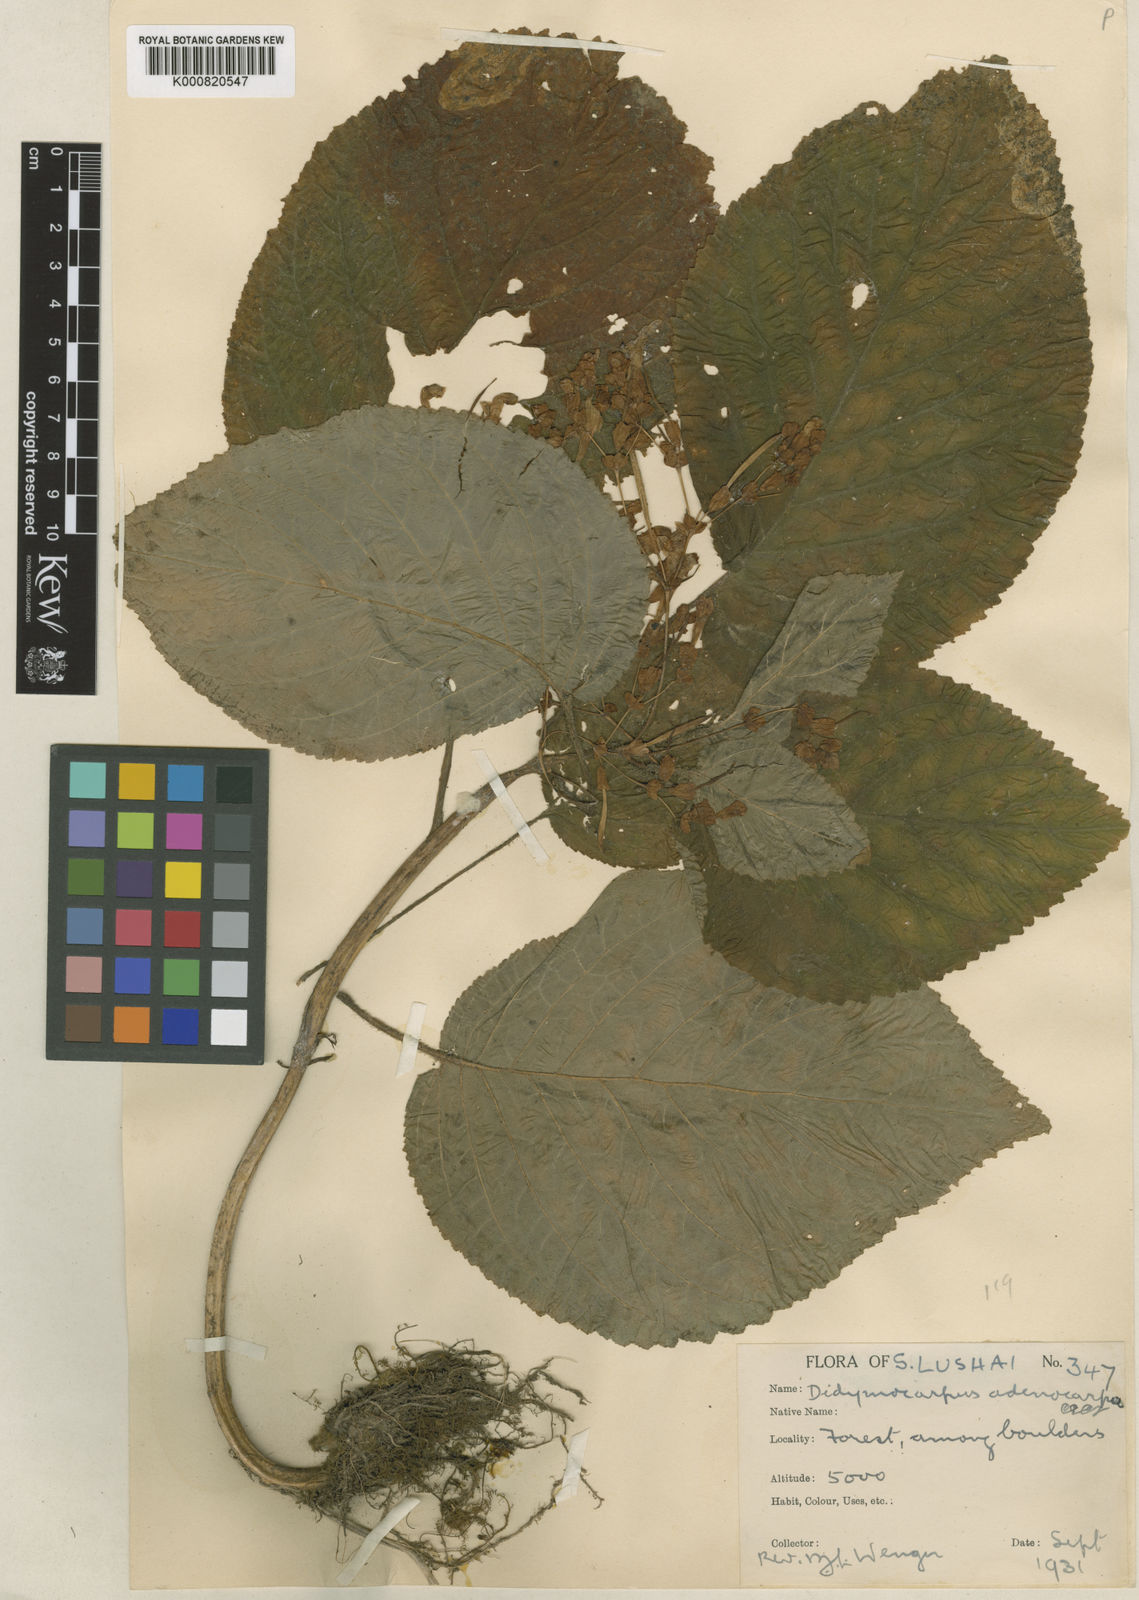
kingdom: Plantae
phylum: Tracheophyta
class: Magnoliopsida
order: Lamiales
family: Gesneriaceae
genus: Didymocarpus
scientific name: Didymocarpus adenocarpus
